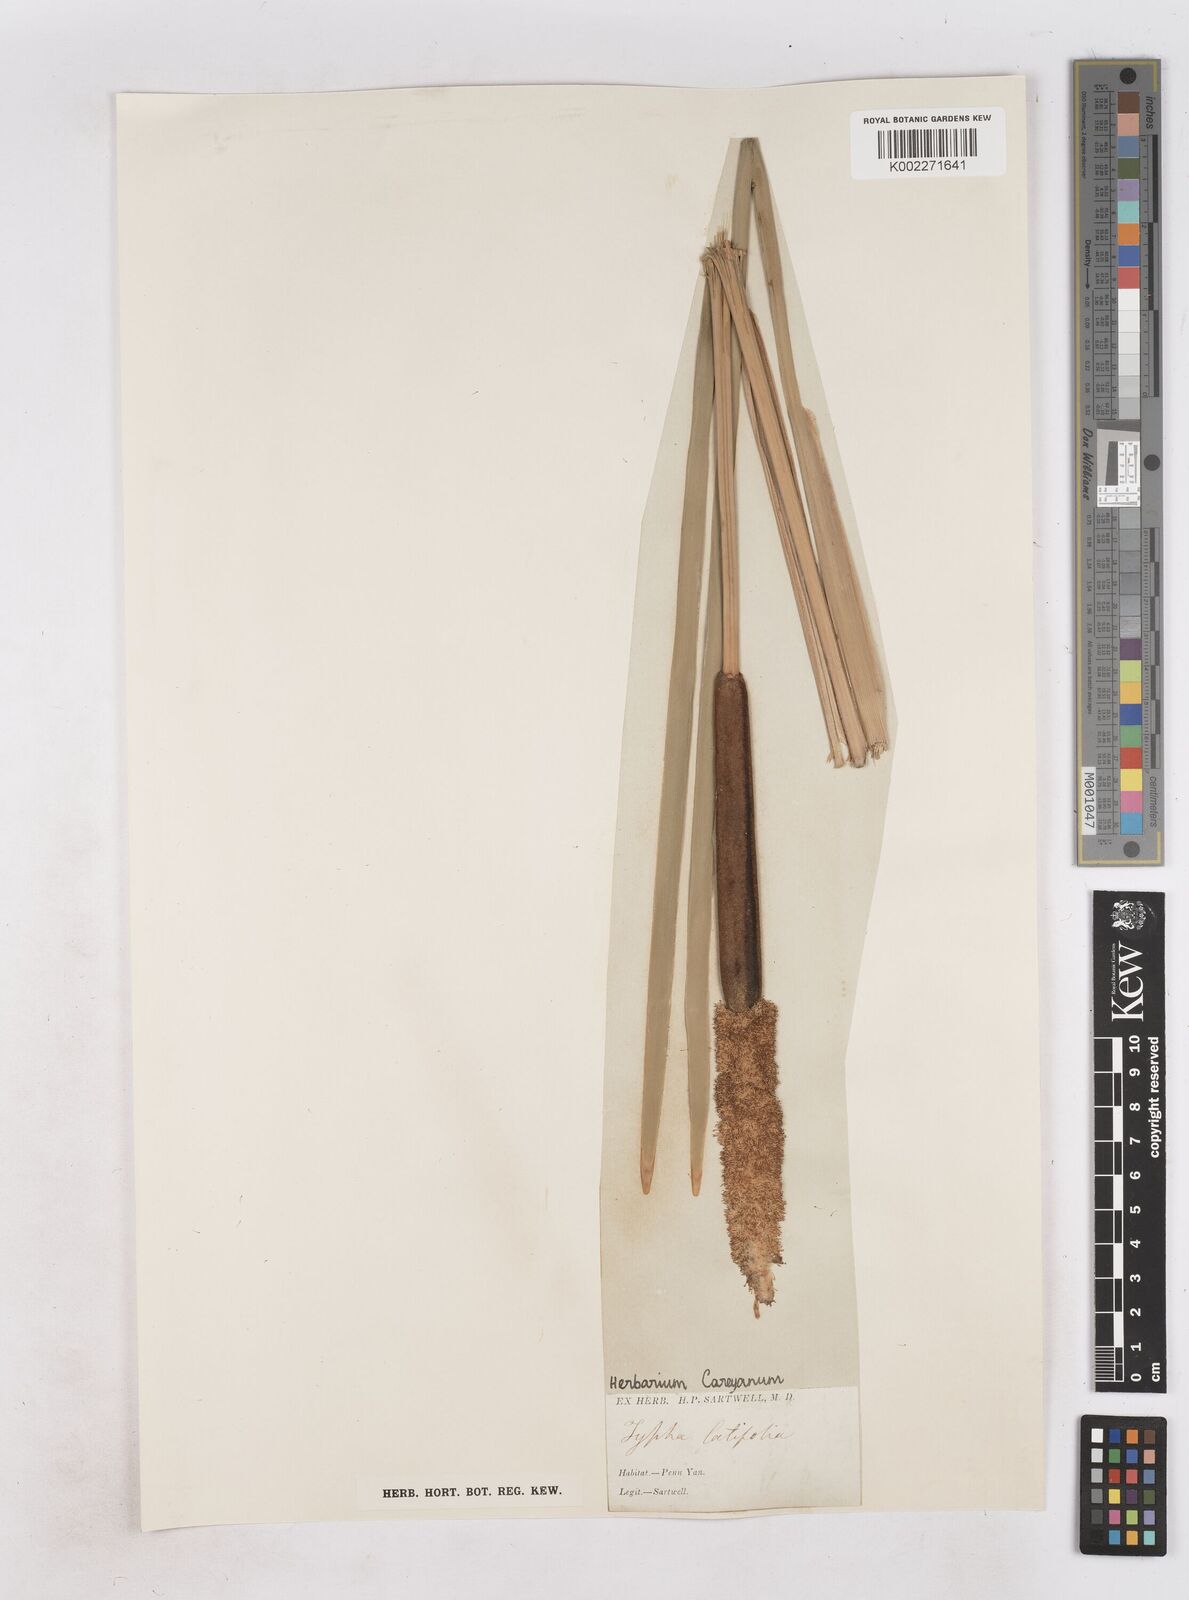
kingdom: Plantae
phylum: Tracheophyta
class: Liliopsida
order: Poales
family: Typhaceae
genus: Typha
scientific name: Typha latifolia
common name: Broadleaf cattail
